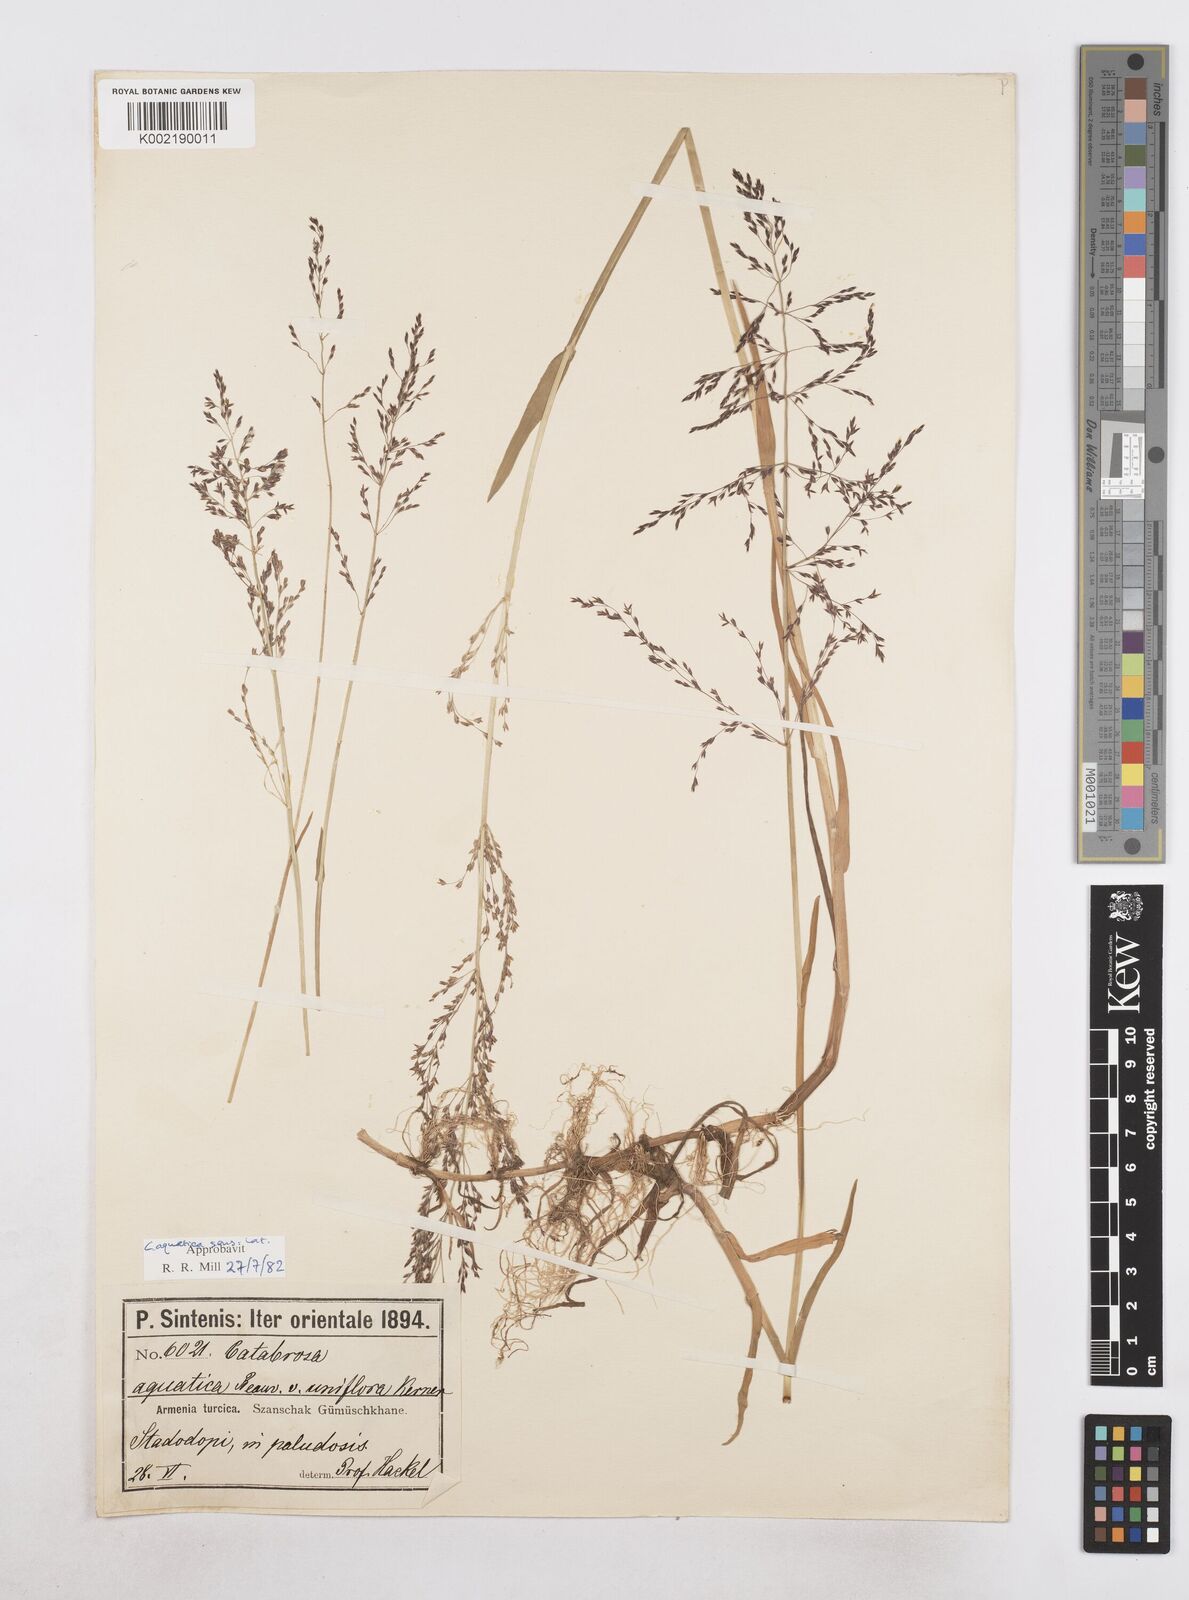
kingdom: Plantae
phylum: Tracheophyta
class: Liliopsida
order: Poales
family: Poaceae
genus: Catabrosa
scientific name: Catabrosa aquatica
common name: Whorl-grass
